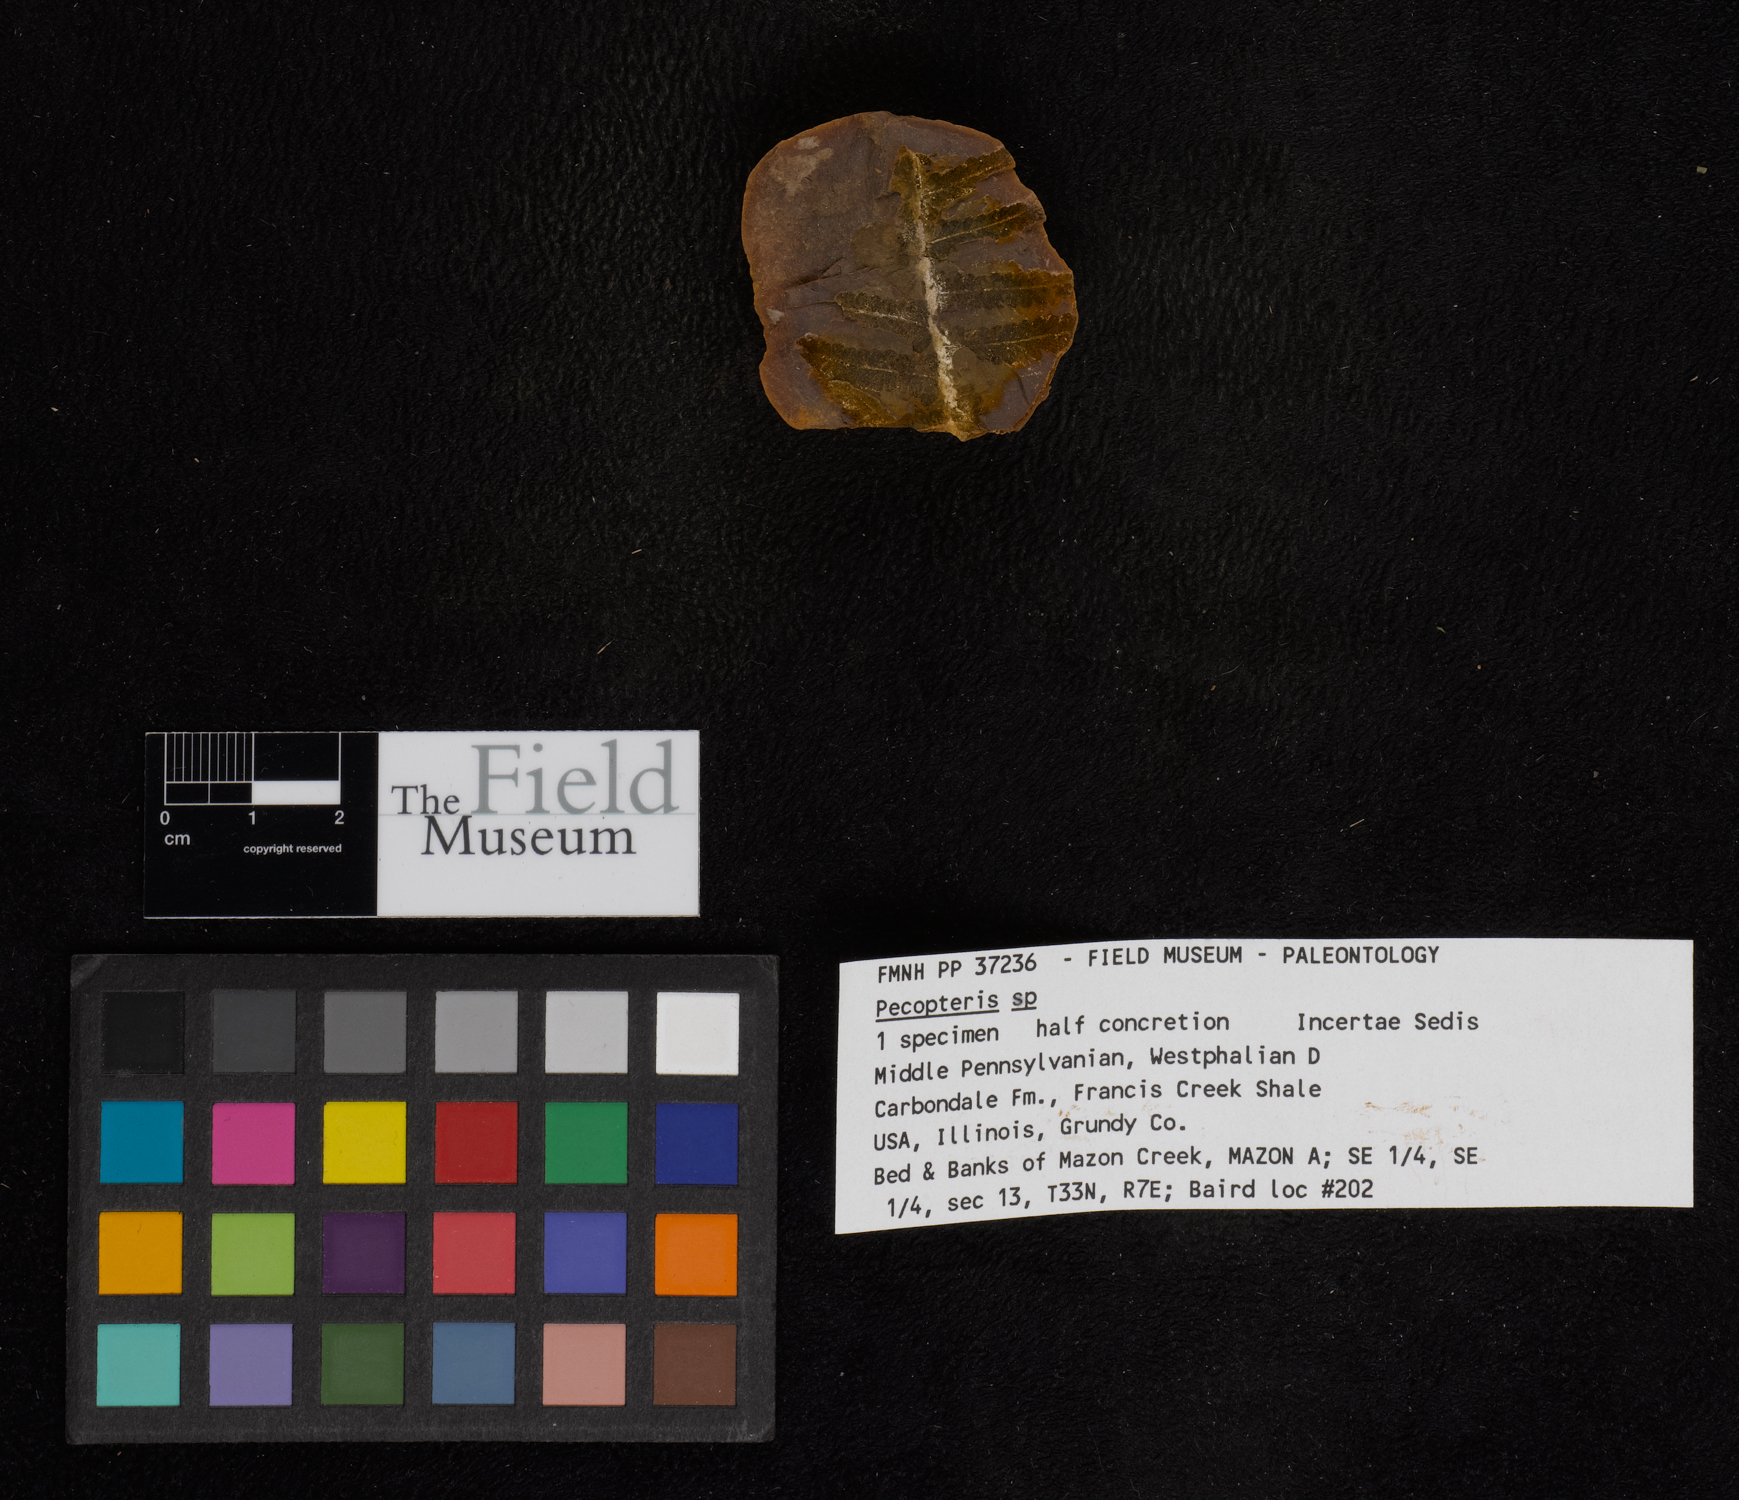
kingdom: Plantae
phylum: Tracheophyta
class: Polypodiopsida
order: Marattiales
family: Asterothecaceae
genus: Pecopteris
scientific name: Pecopteris
